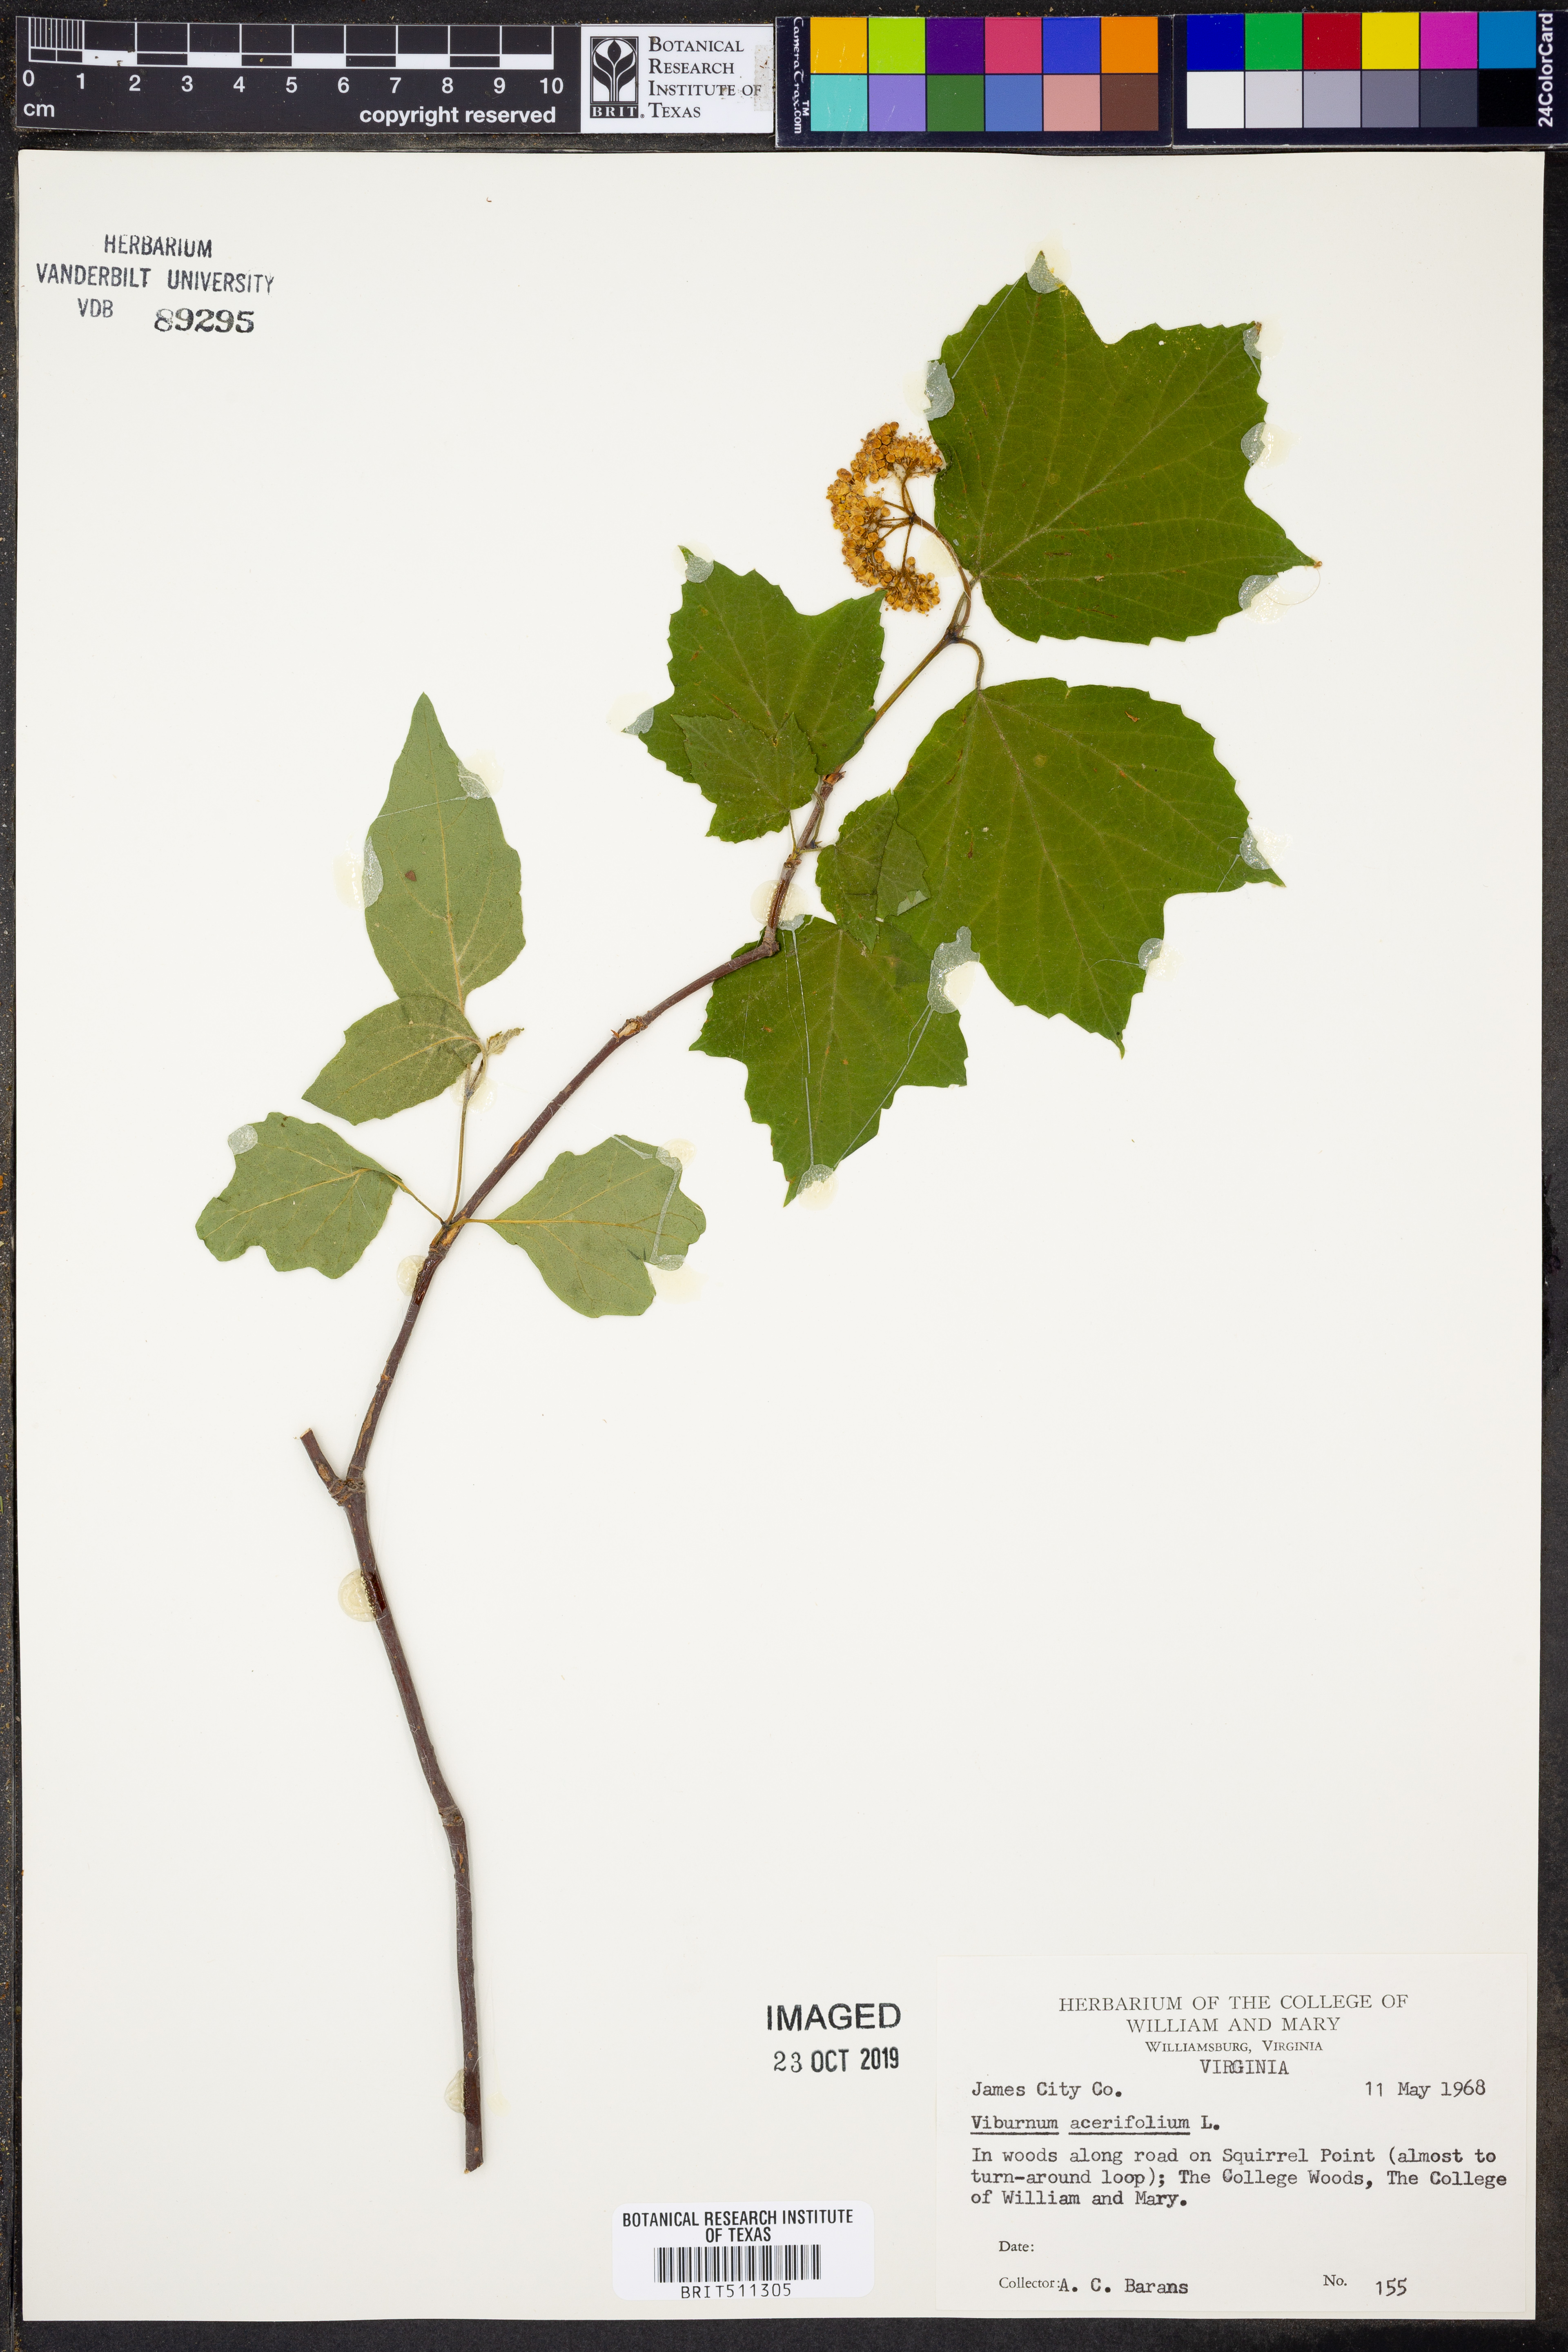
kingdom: Plantae
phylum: Tracheophyta
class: Magnoliopsida
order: Dipsacales
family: Viburnaceae
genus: Viburnum
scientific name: Viburnum acerifolium
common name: Dockmackie
